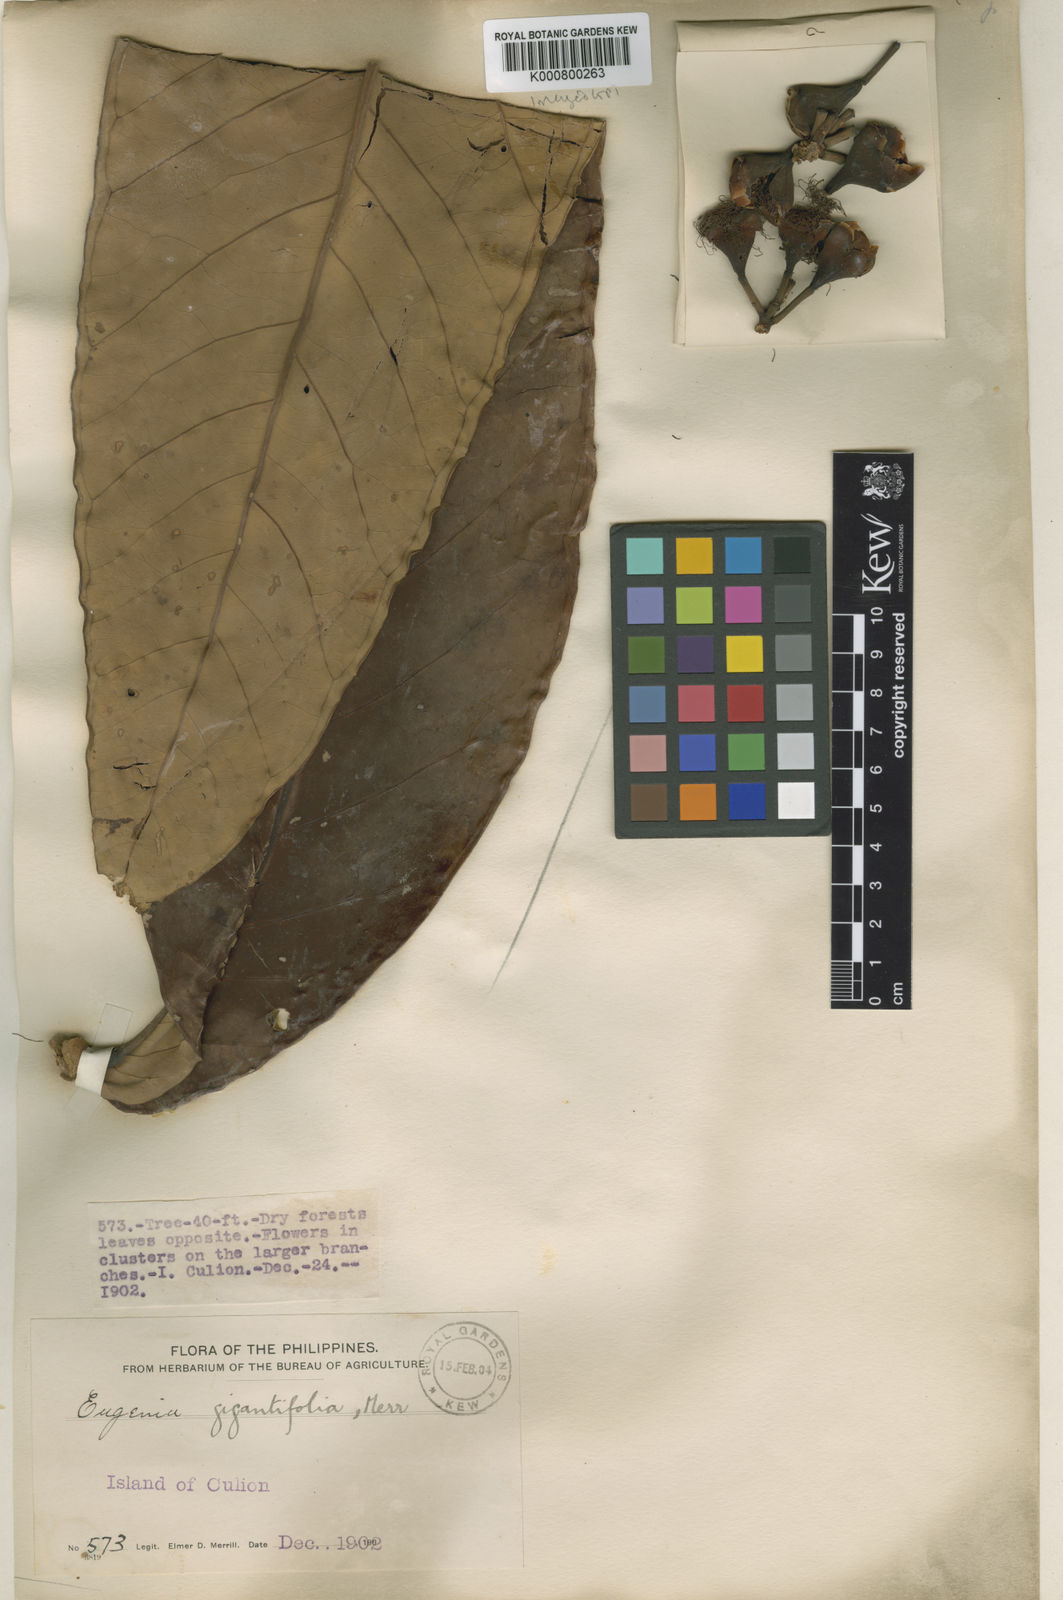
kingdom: Plantae
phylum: Tracheophyta
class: Magnoliopsida
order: Myrtales
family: Myrtaceae
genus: Syzygium
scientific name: Syzygium gigantifolium
